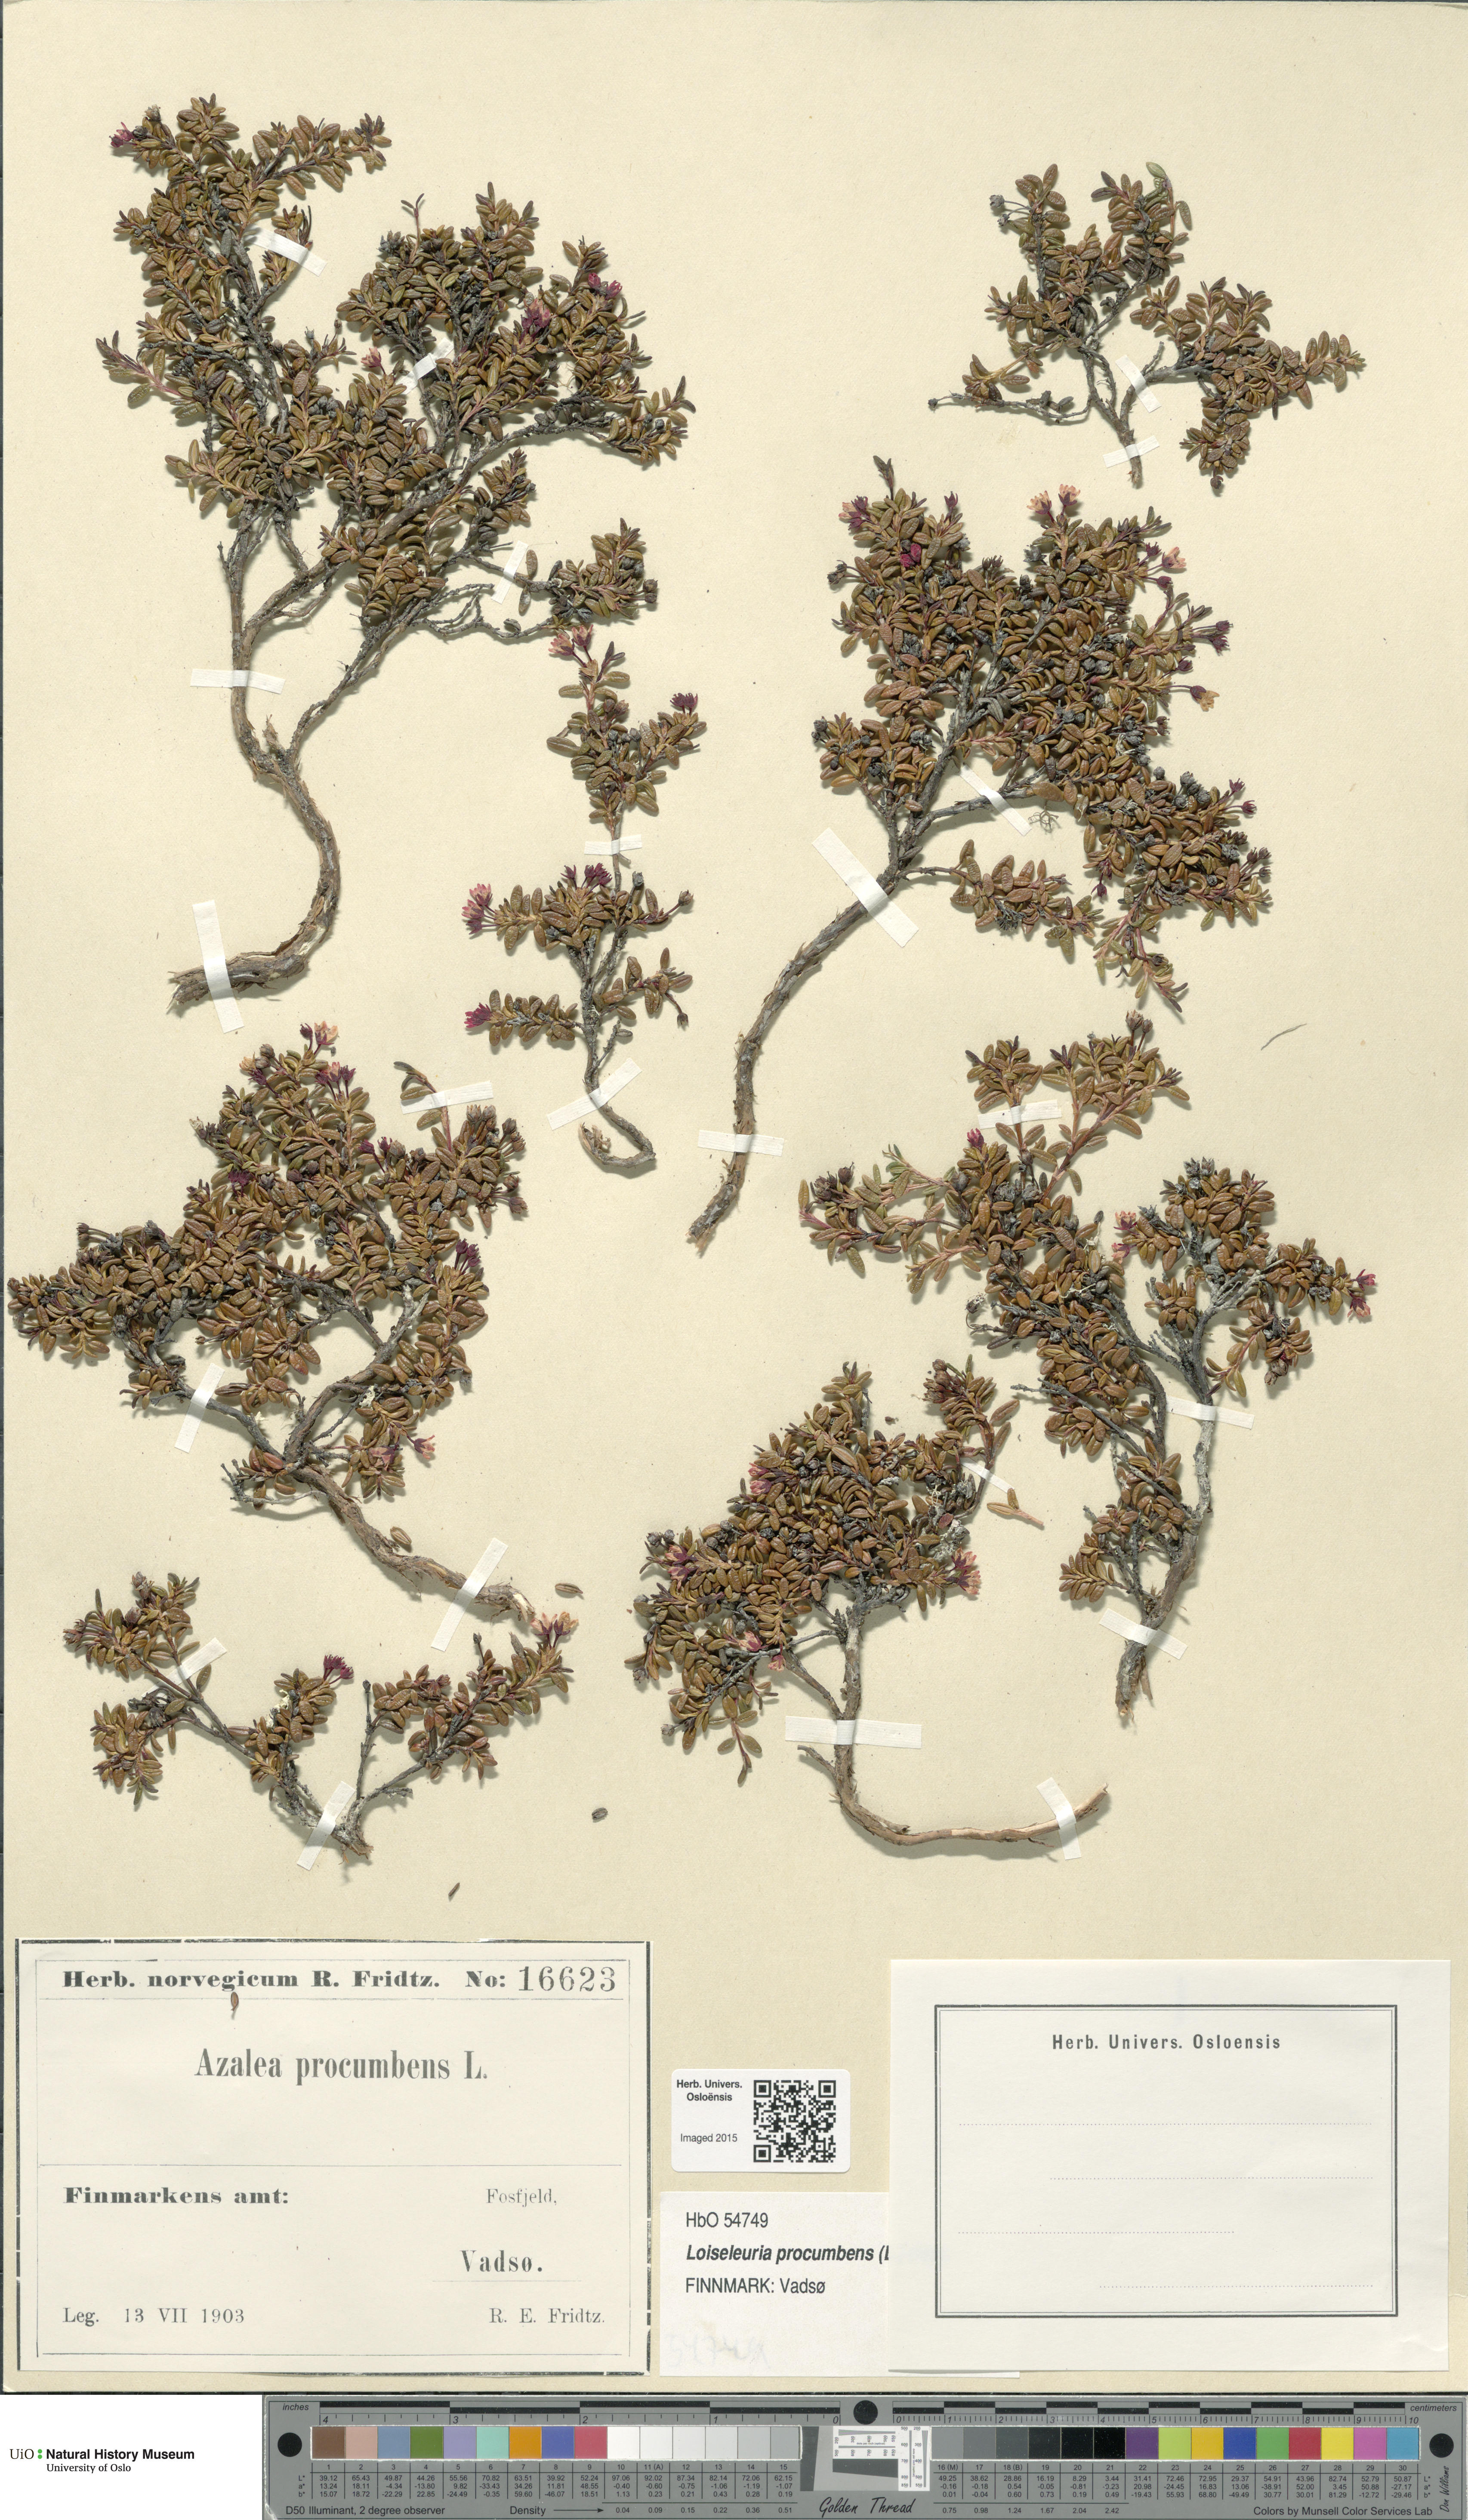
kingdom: Plantae
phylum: Tracheophyta
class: Magnoliopsida
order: Ericales
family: Ericaceae
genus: Kalmia
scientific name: Kalmia procumbens
